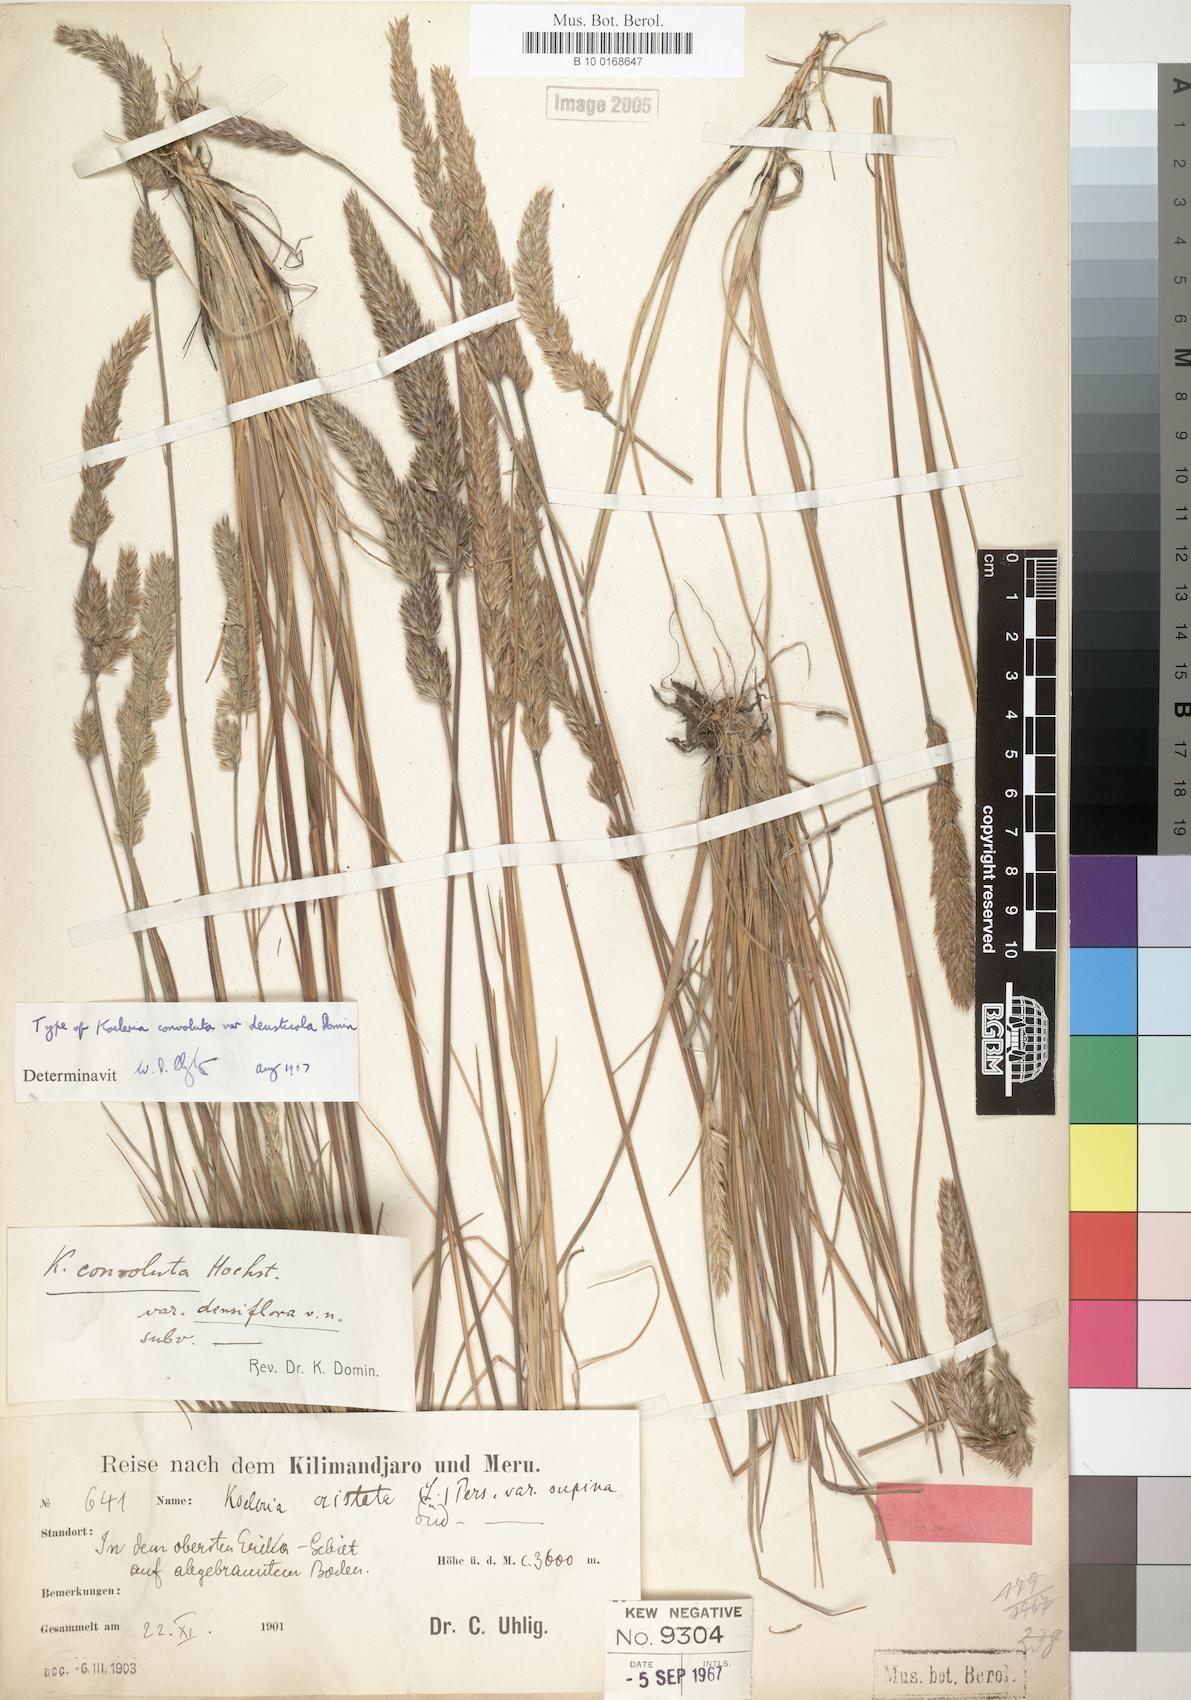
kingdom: Plantae
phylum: Tracheophyta
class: Liliopsida
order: Poales
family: Poaceae
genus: Koeleria
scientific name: Koeleria capensis
